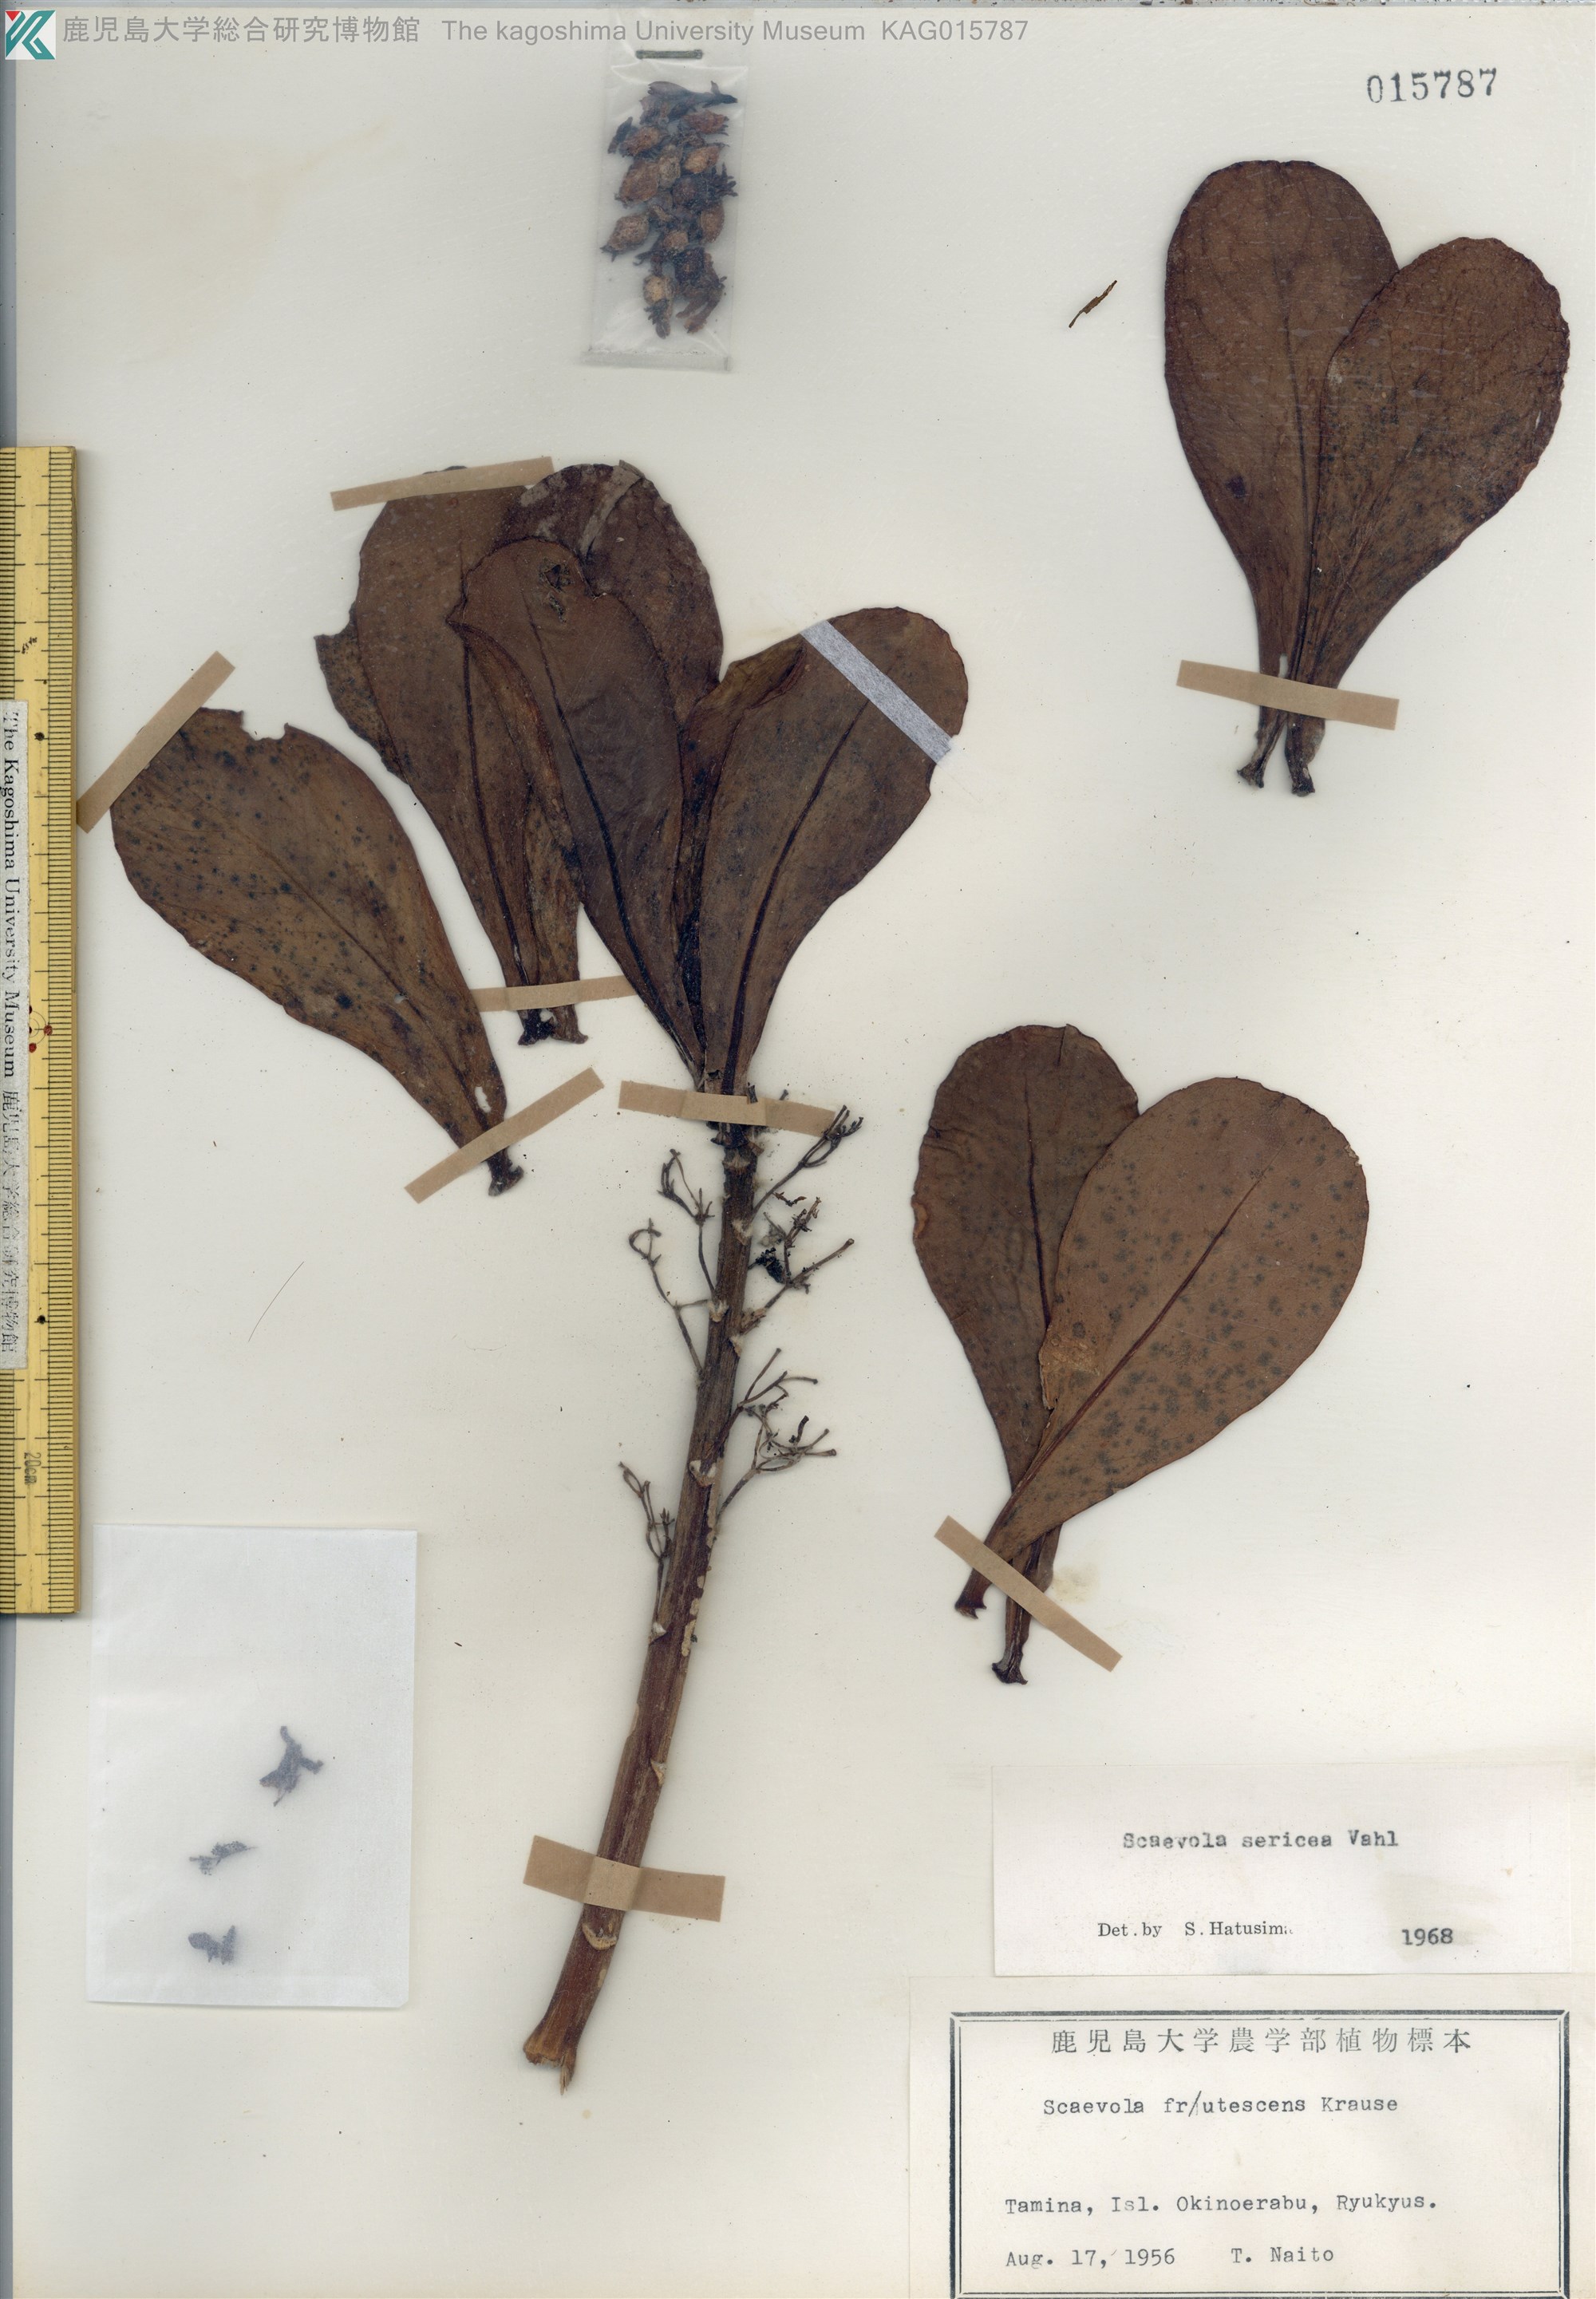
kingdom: Plantae
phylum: Tracheophyta
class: Magnoliopsida
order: Asterales
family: Goodeniaceae
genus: Scaevola
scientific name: Scaevola taccada
